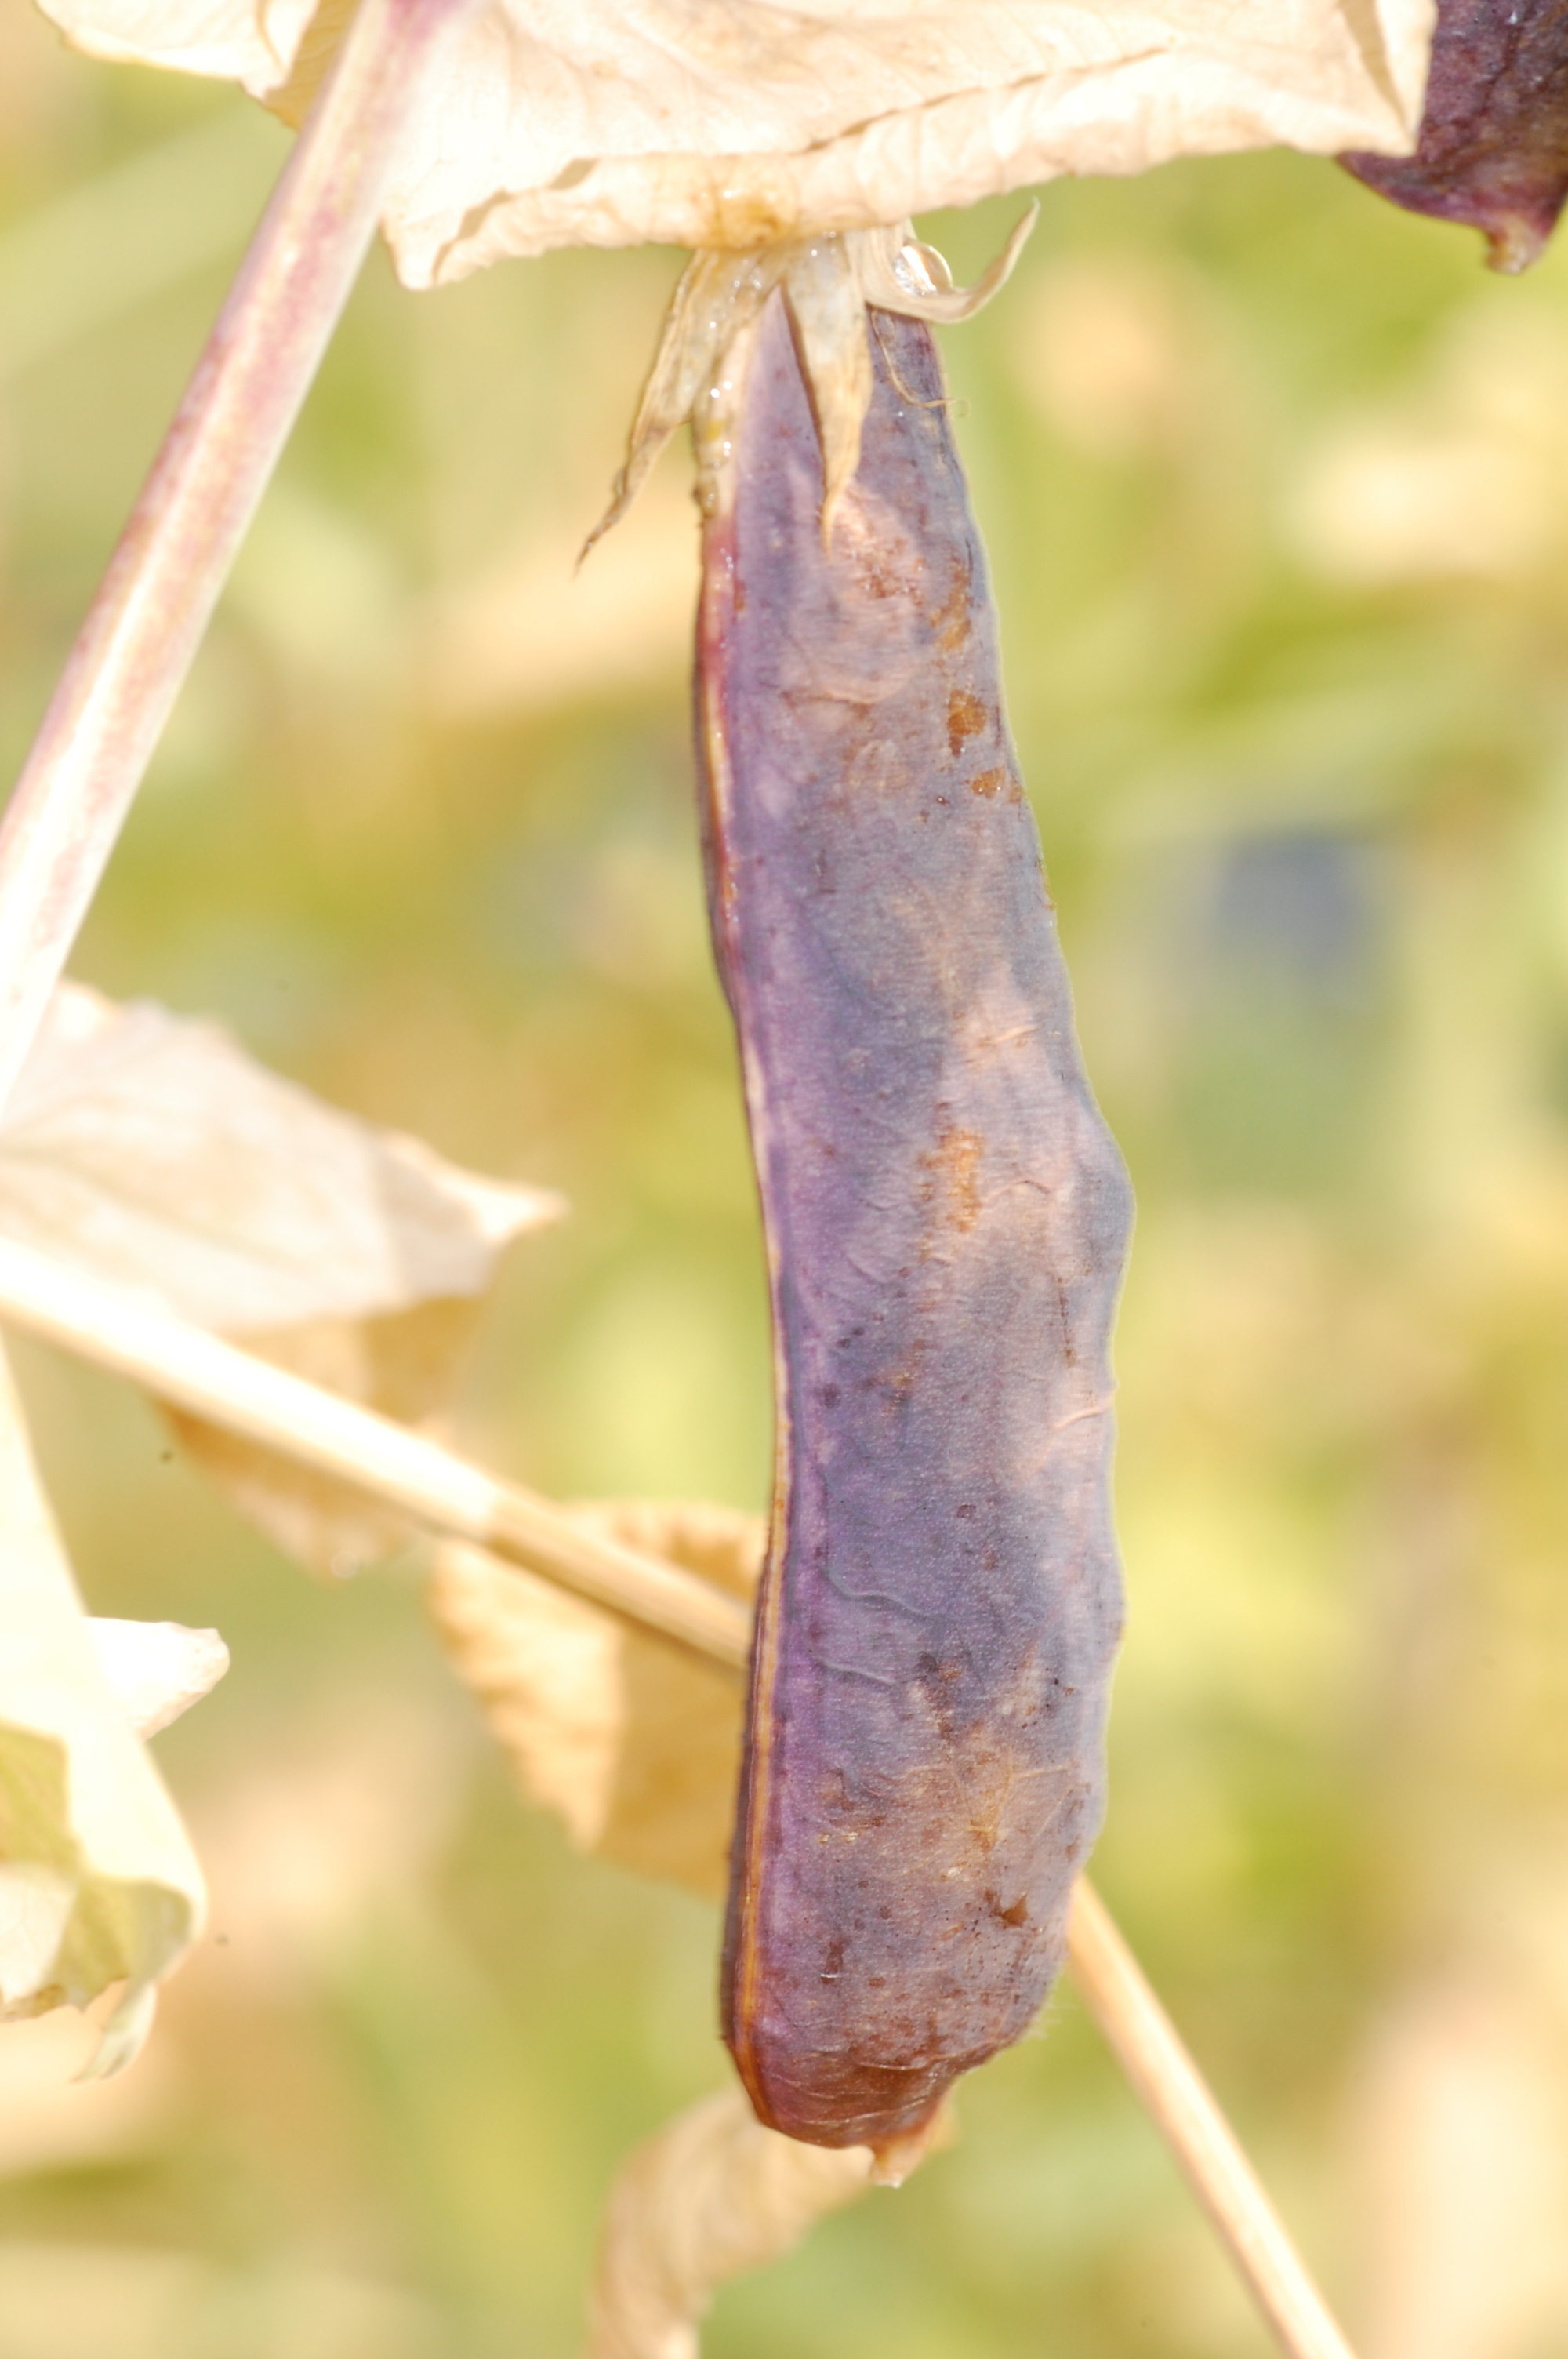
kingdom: Plantae
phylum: Tracheophyta
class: Magnoliopsida
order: Fabales
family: Fabaceae
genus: Lathyrus
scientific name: Lathyrus oleraceus
